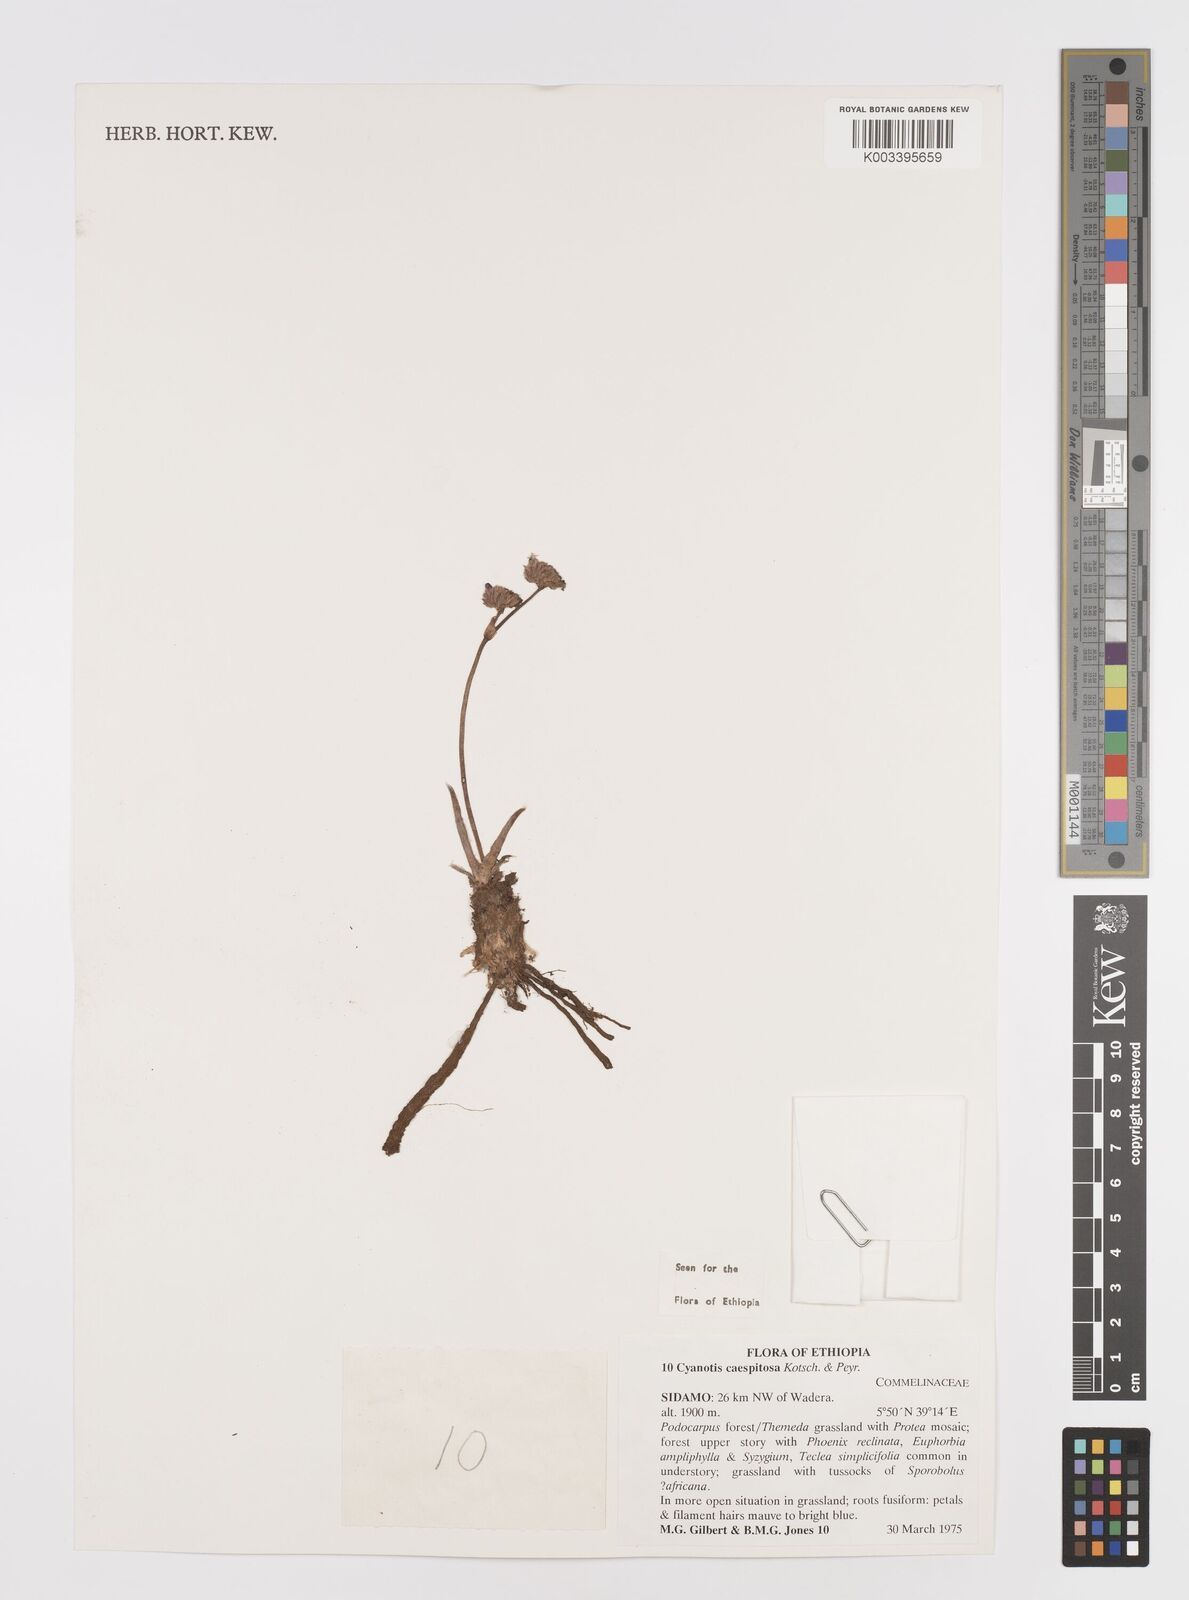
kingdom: Plantae
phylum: Tracheophyta
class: Liliopsida
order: Commelinales
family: Commelinaceae
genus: Cyanotis
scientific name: Cyanotis caespitosa
